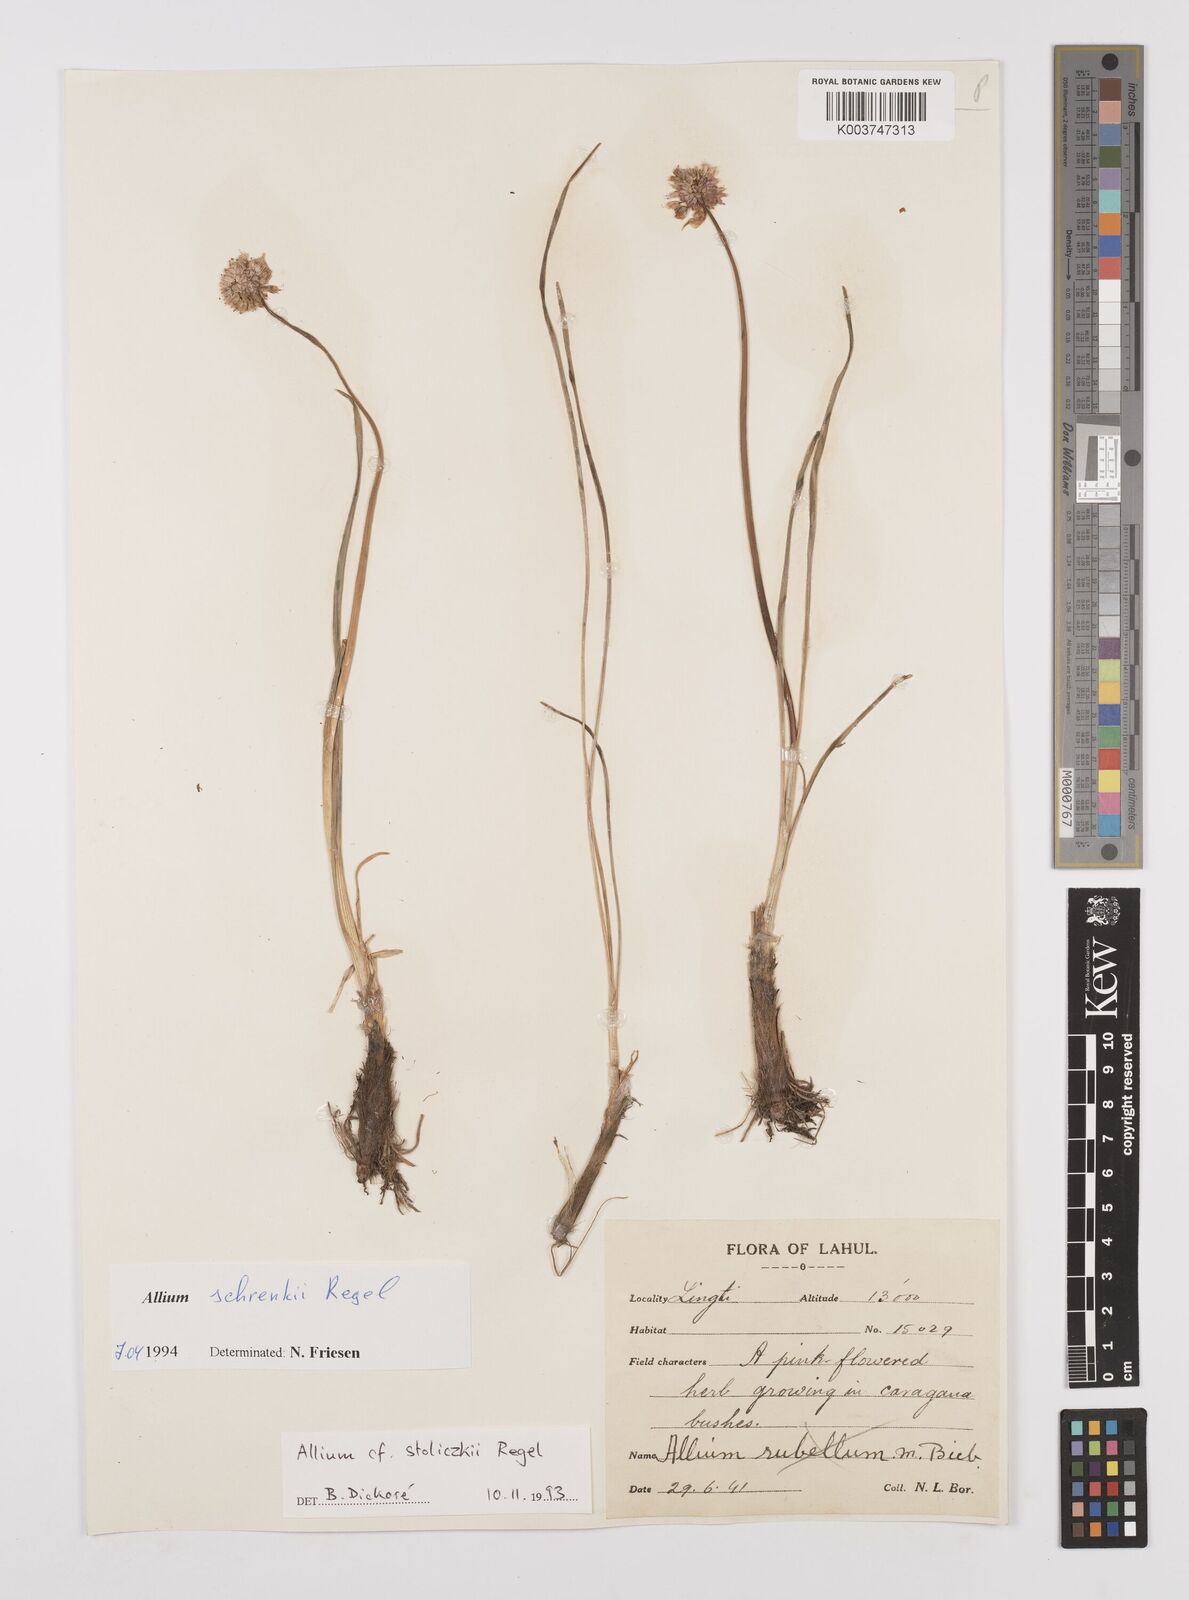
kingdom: Plantae
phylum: Tracheophyta
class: Liliopsida
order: Asparagales
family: Amaryllidaceae
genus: Allium
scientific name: Allium schrenkii
